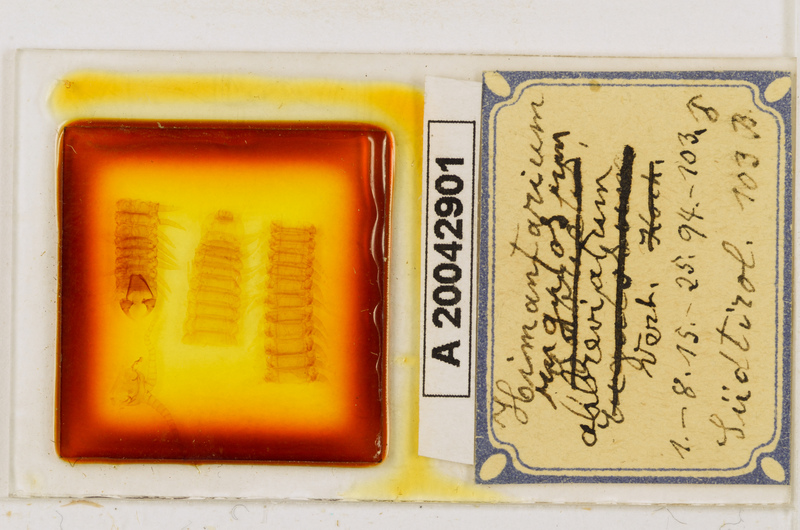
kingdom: Animalia
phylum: Arthropoda
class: Chilopoda
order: Geophilomorpha
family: Himantariidae
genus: Himantarium
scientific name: Himantarium gabrielis
